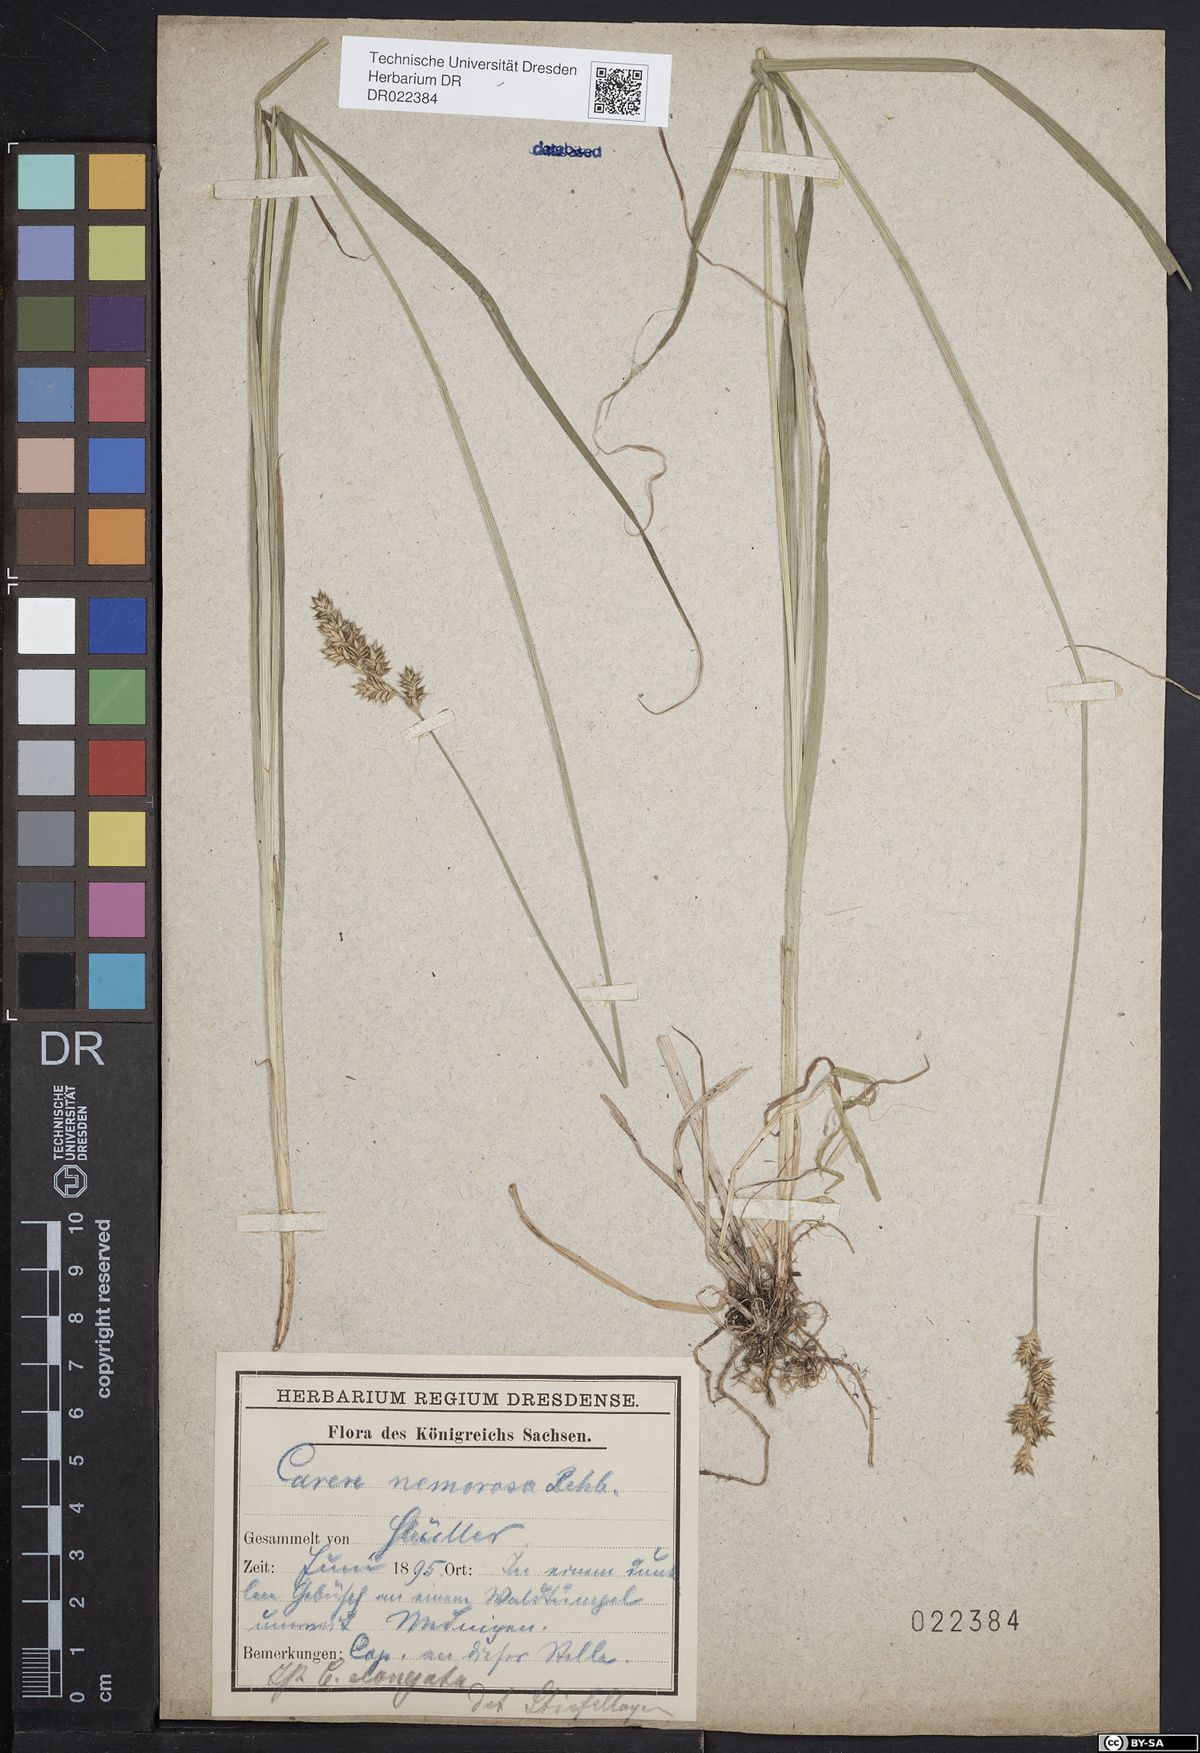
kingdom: Plantae
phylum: Tracheophyta
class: Liliopsida
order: Poales
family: Cyperaceae
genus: Carex
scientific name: Carex elongata
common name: Elongated sedge
